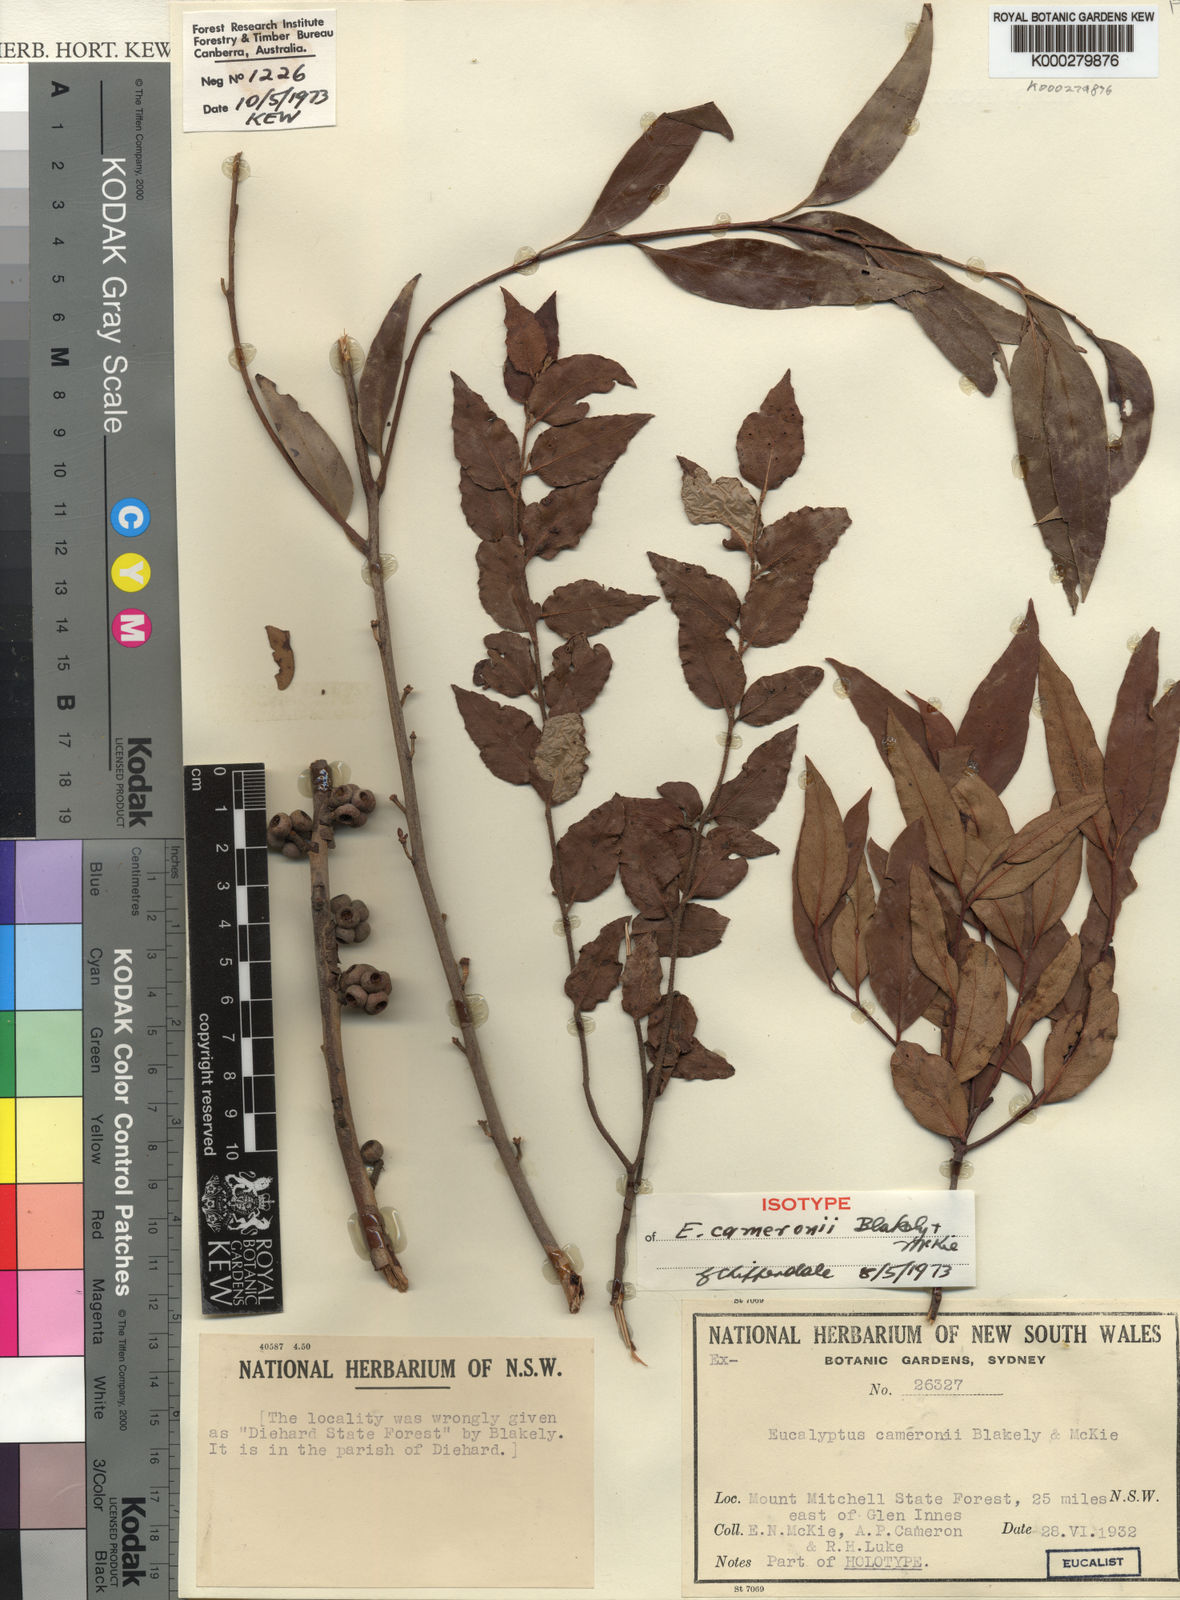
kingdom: Plantae
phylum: Tracheophyta
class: Magnoliopsida
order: Myrtales
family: Myrtaceae
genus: Eucalyptus
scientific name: Eucalyptus cameronii
